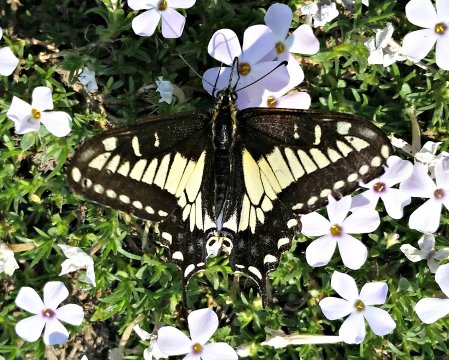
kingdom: Animalia
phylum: Arthropoda
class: Insecta
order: Lepidoptera
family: Papilionidae
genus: Papilio
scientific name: Papilio zelicaon
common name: Anise Swallowtail
